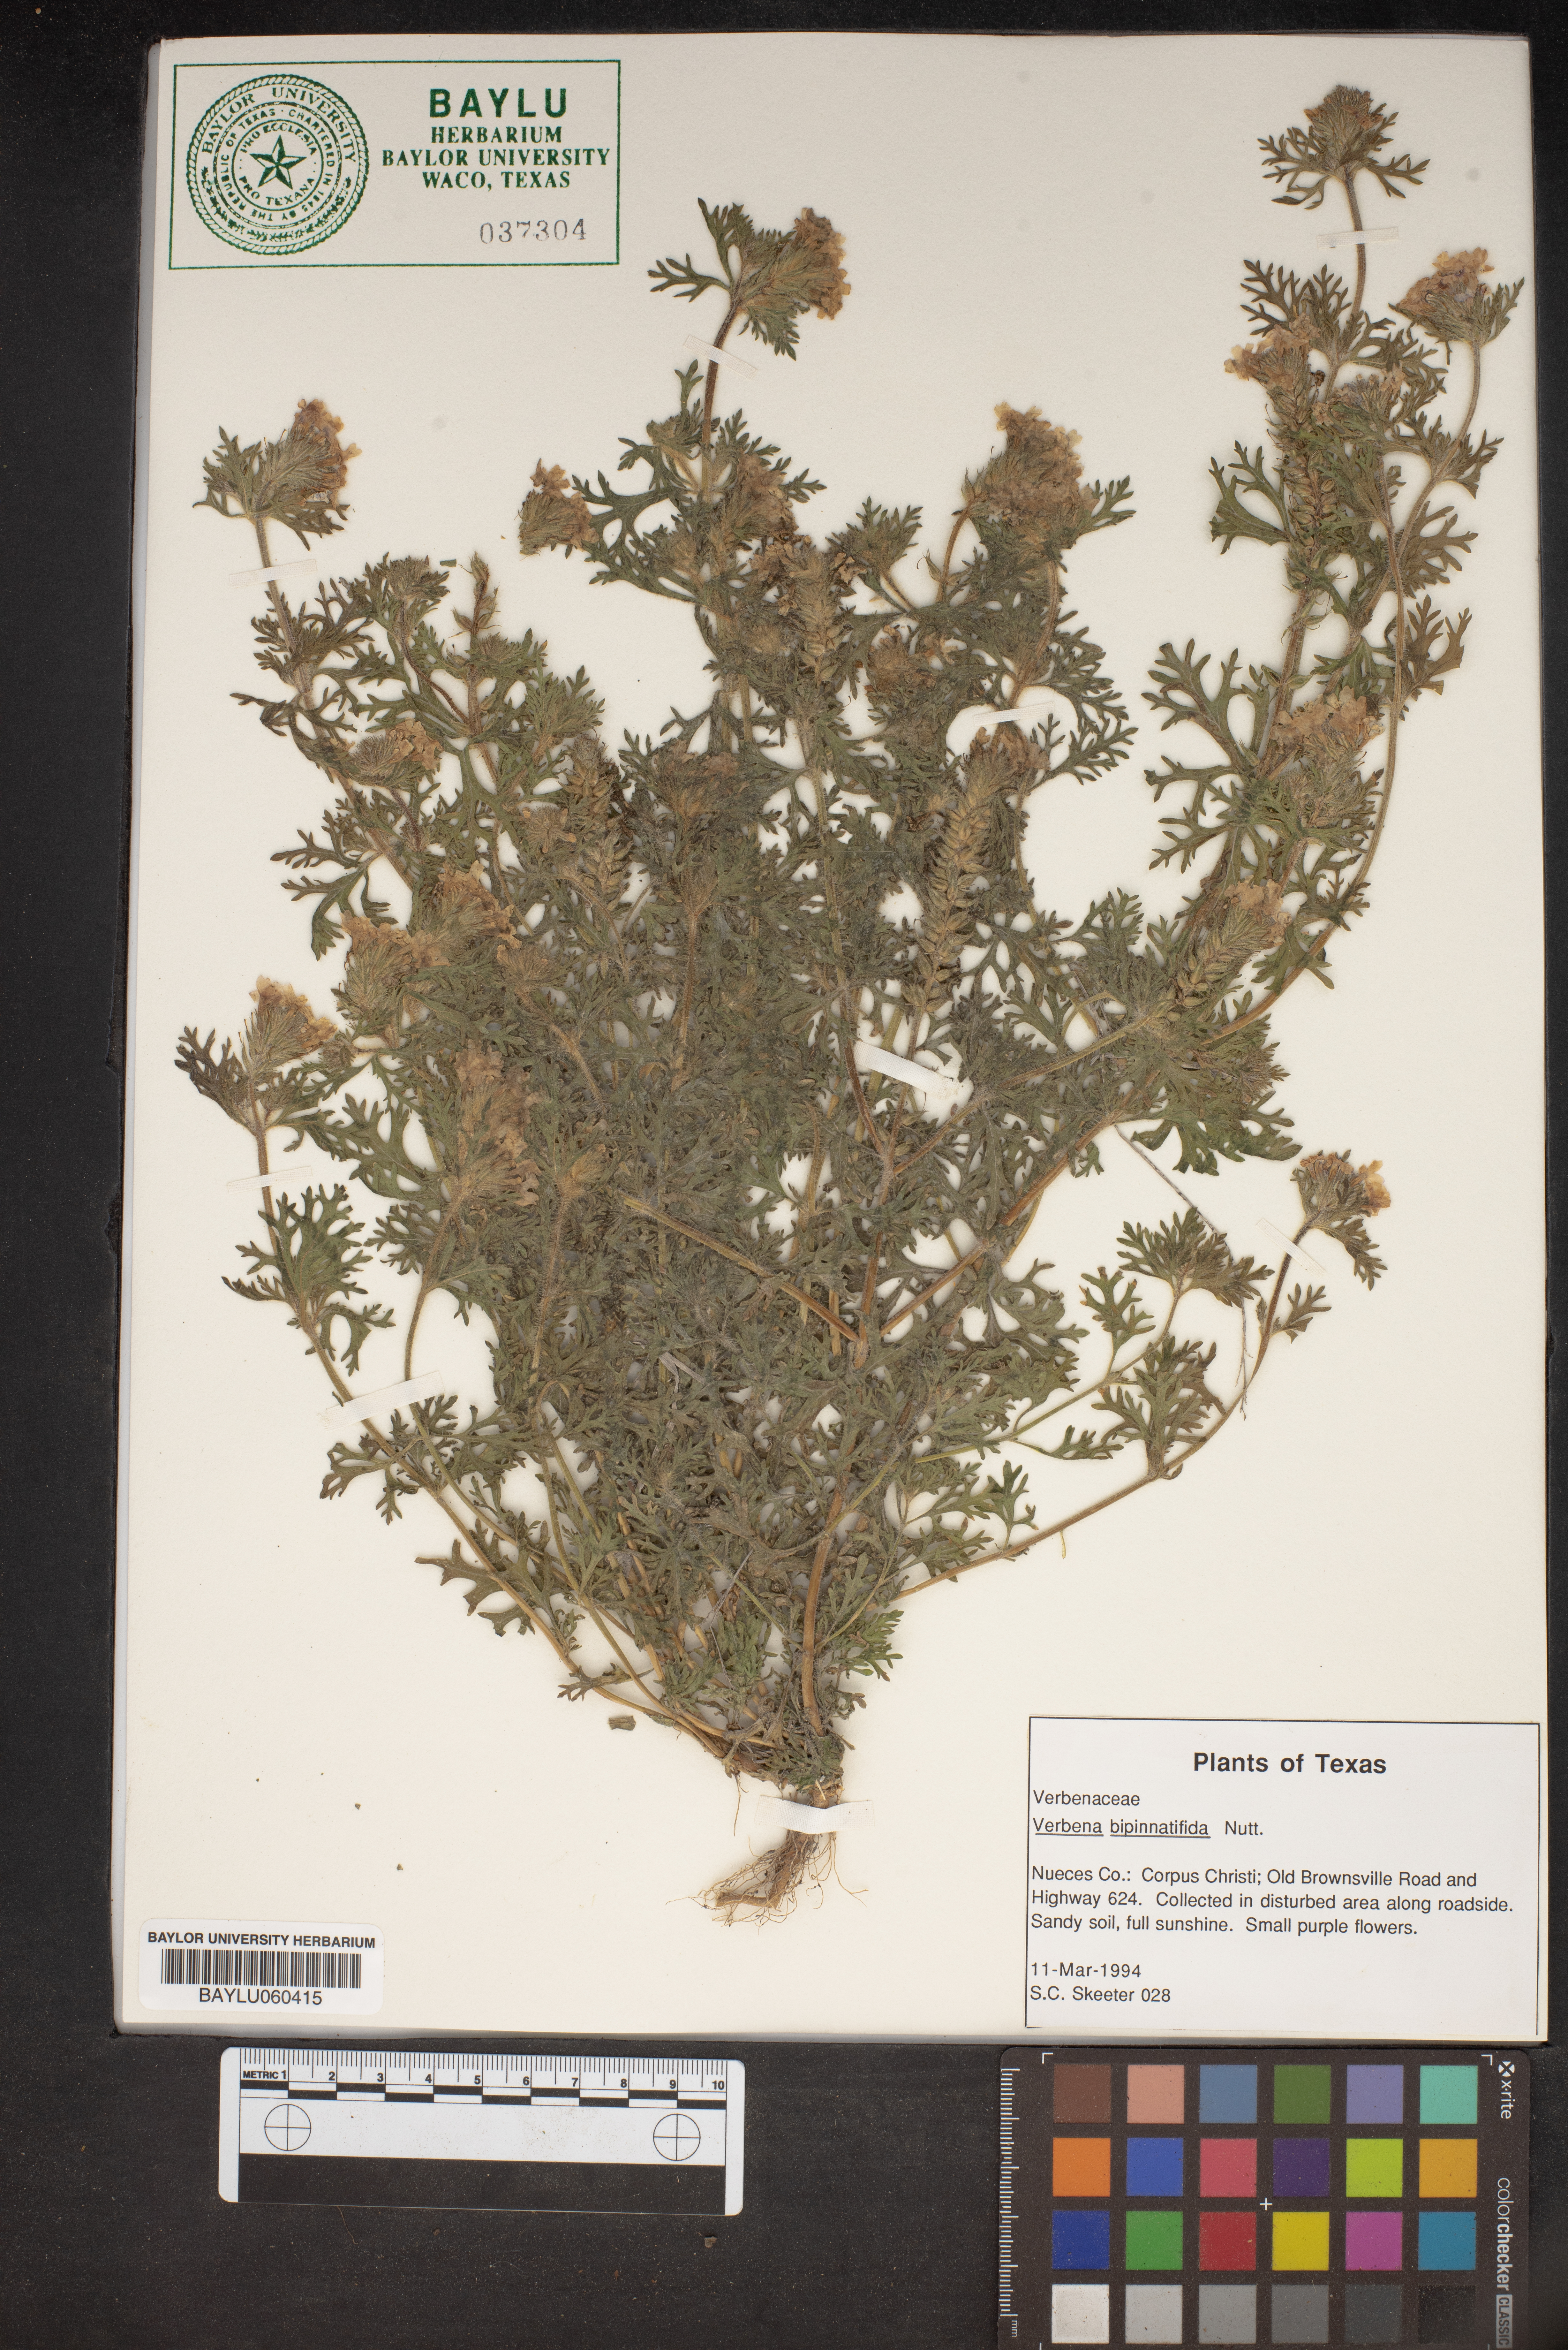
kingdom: Plantae
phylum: Tracheophyta
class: Magnoliopsida
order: Lamiales
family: Verbenaceae
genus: Verbena
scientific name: Verbena bipinnatifida
